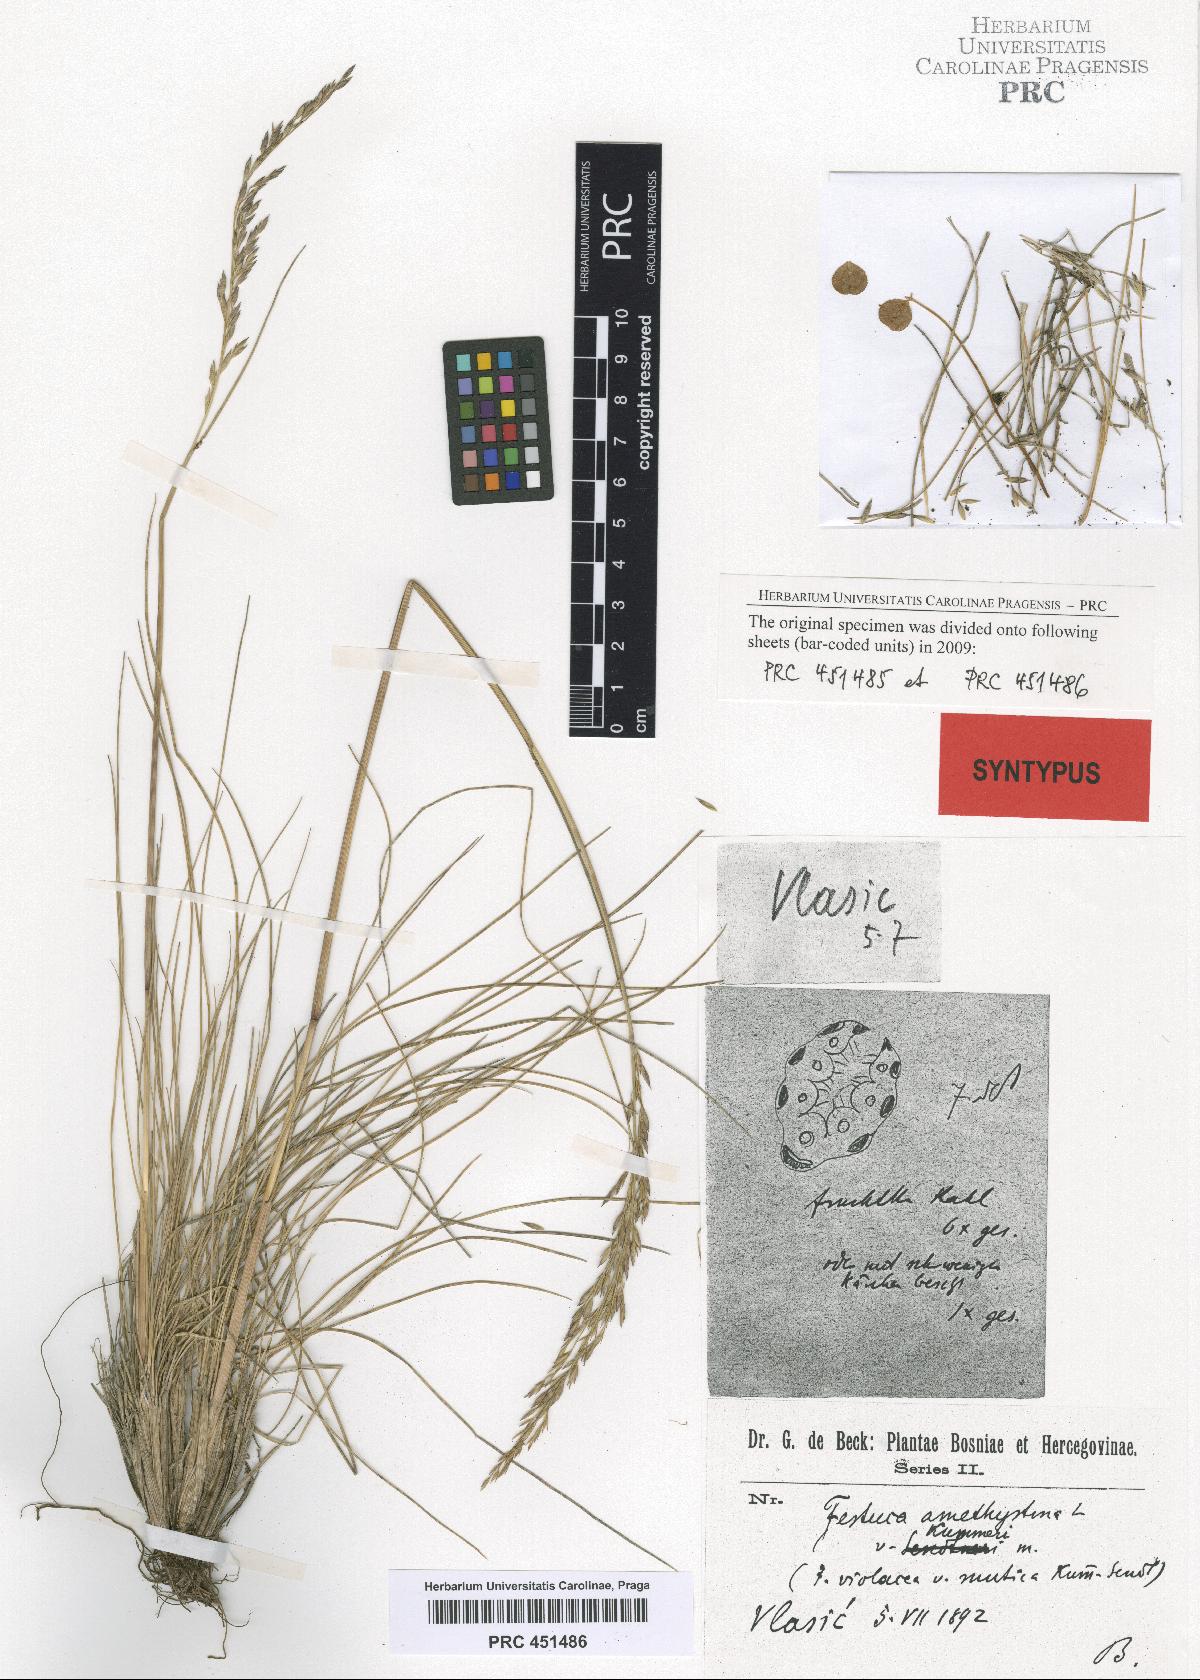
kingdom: Plantae
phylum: Tracheophyta
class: Liliopsida
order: Poales
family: Poaceae
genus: Festuca
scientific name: Festuca amethystina
